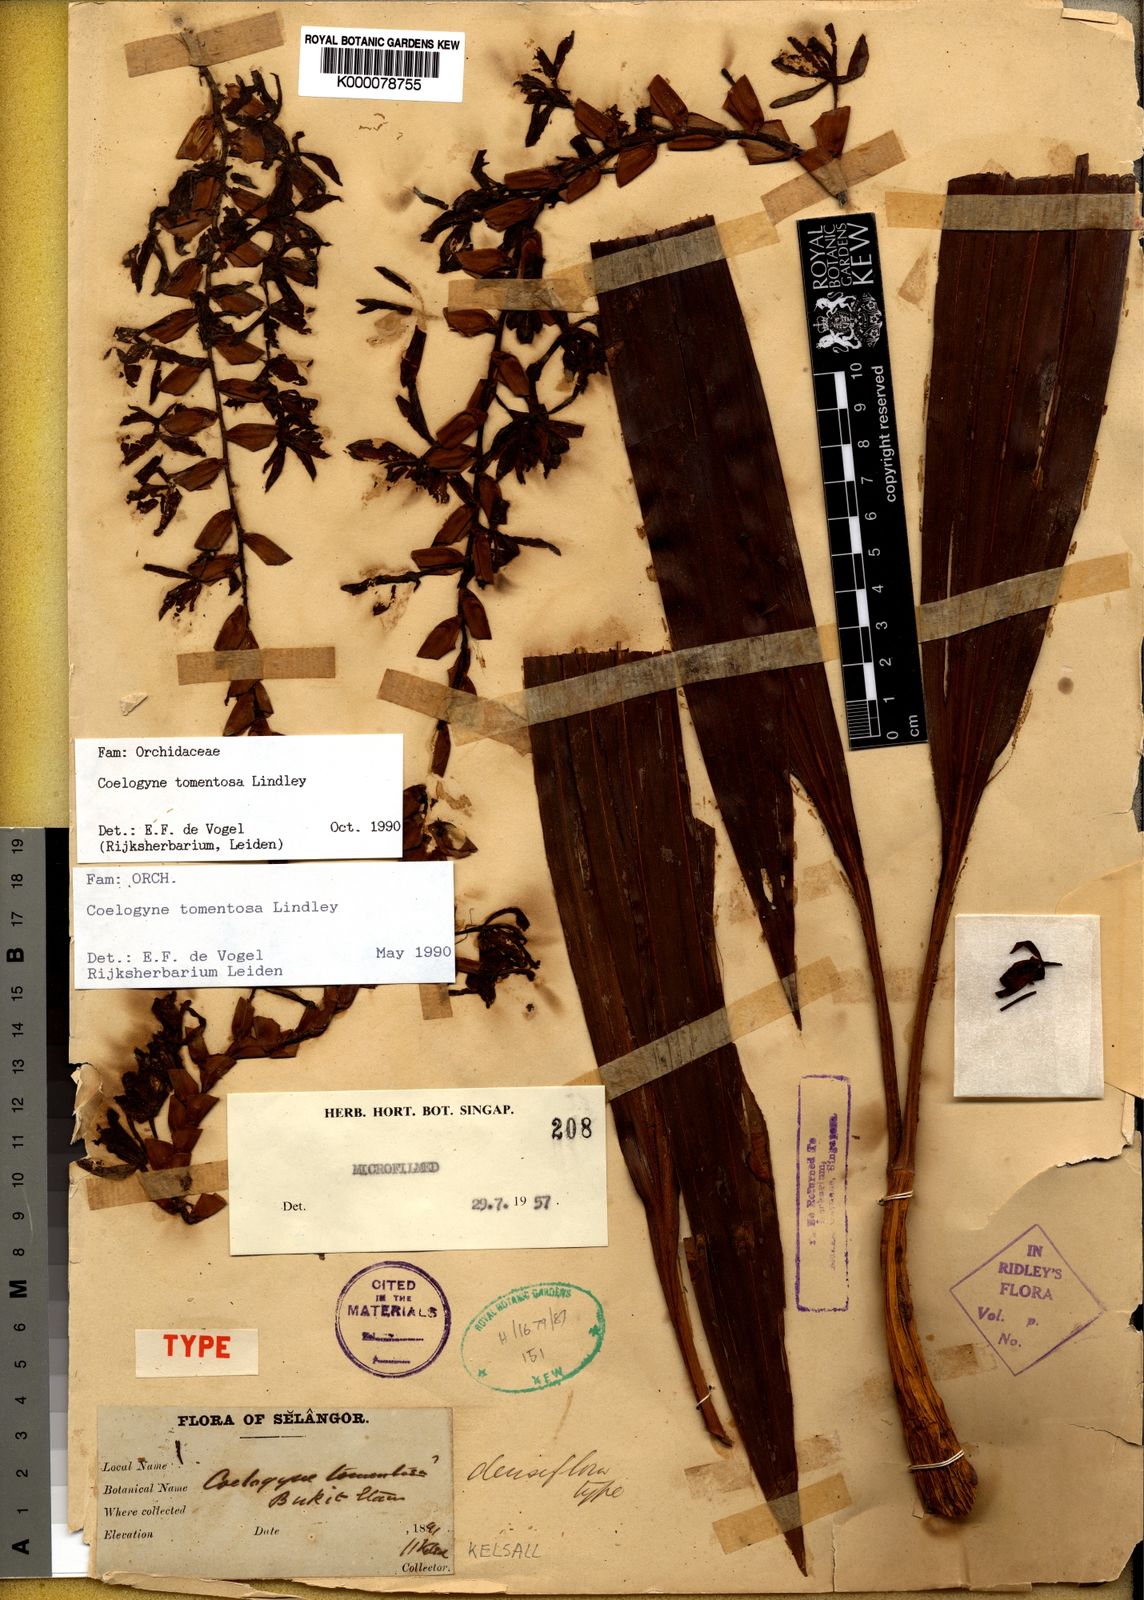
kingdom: Plantae
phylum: Tracheophyta
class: Liliopsida
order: Asparagales
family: Orchidaceae
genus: Coelogyne
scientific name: Coelogyne tomentosa
